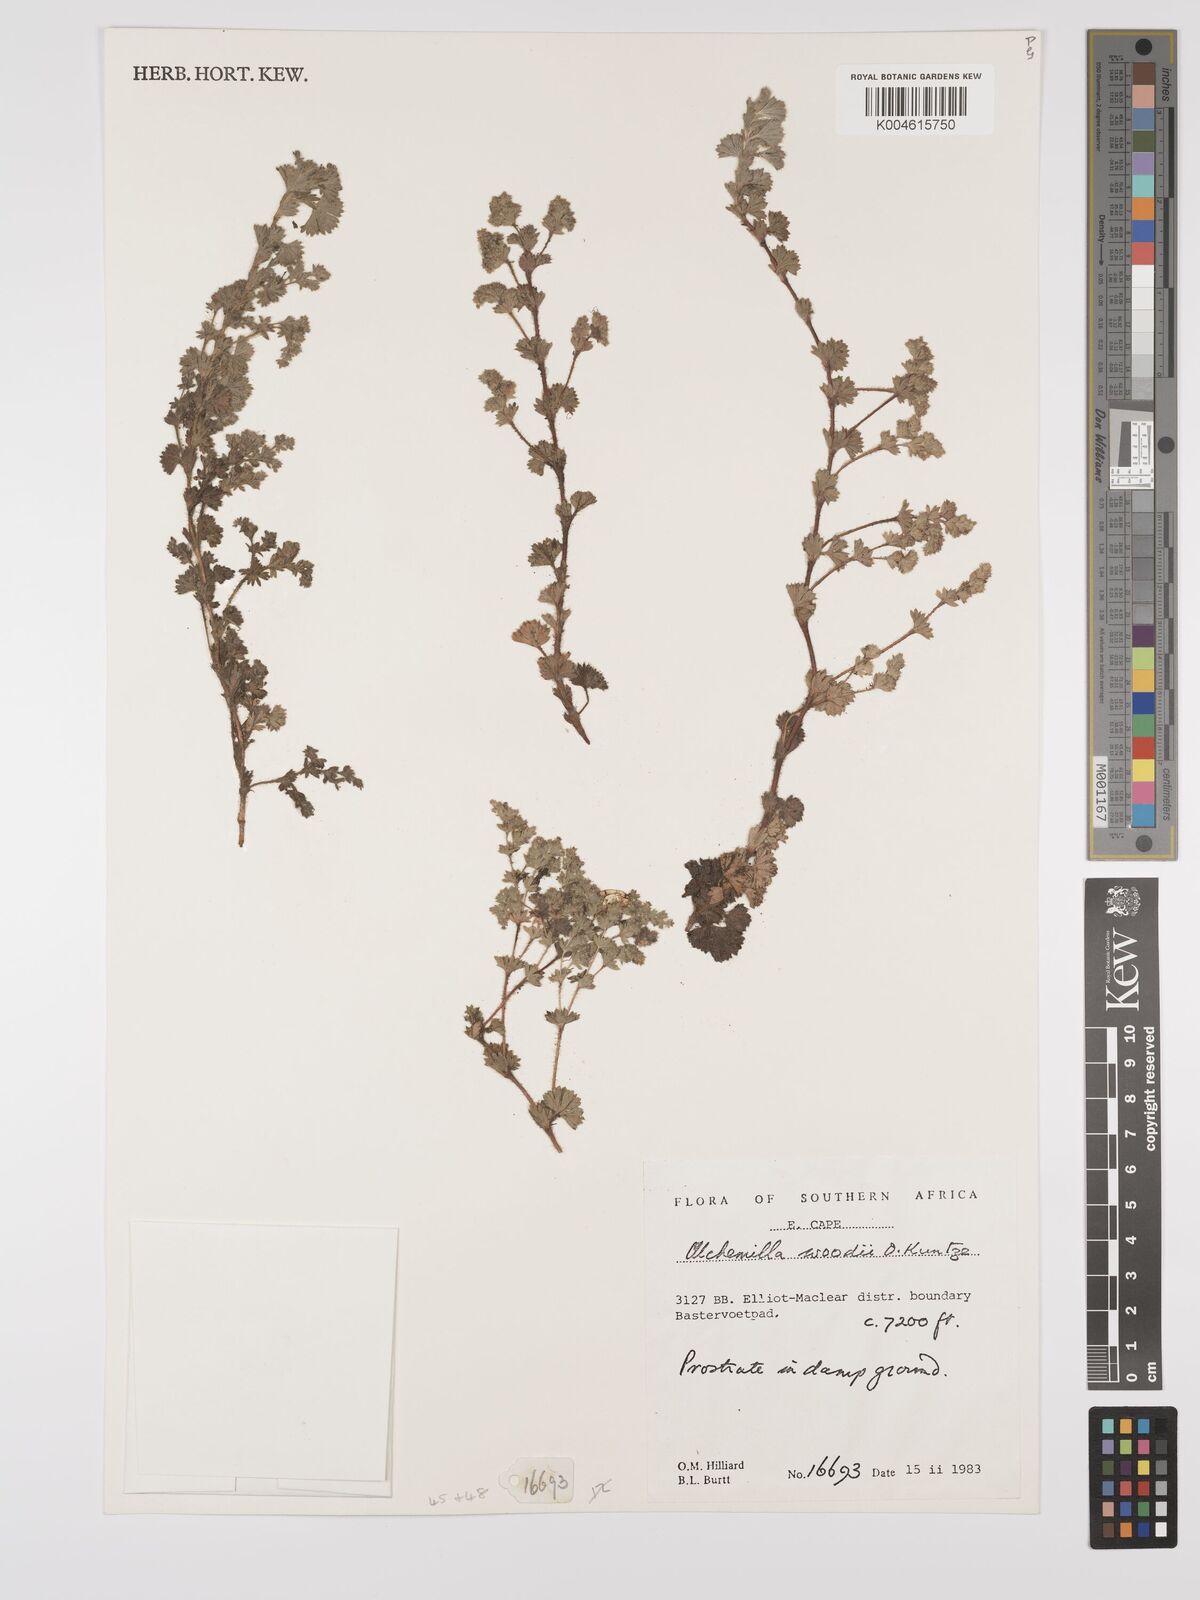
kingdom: Plantae
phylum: Tracheophyta
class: Magnoliopsida
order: Rosales
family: Rosaceae
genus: Alchemilla
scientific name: Alchemilla woodii
